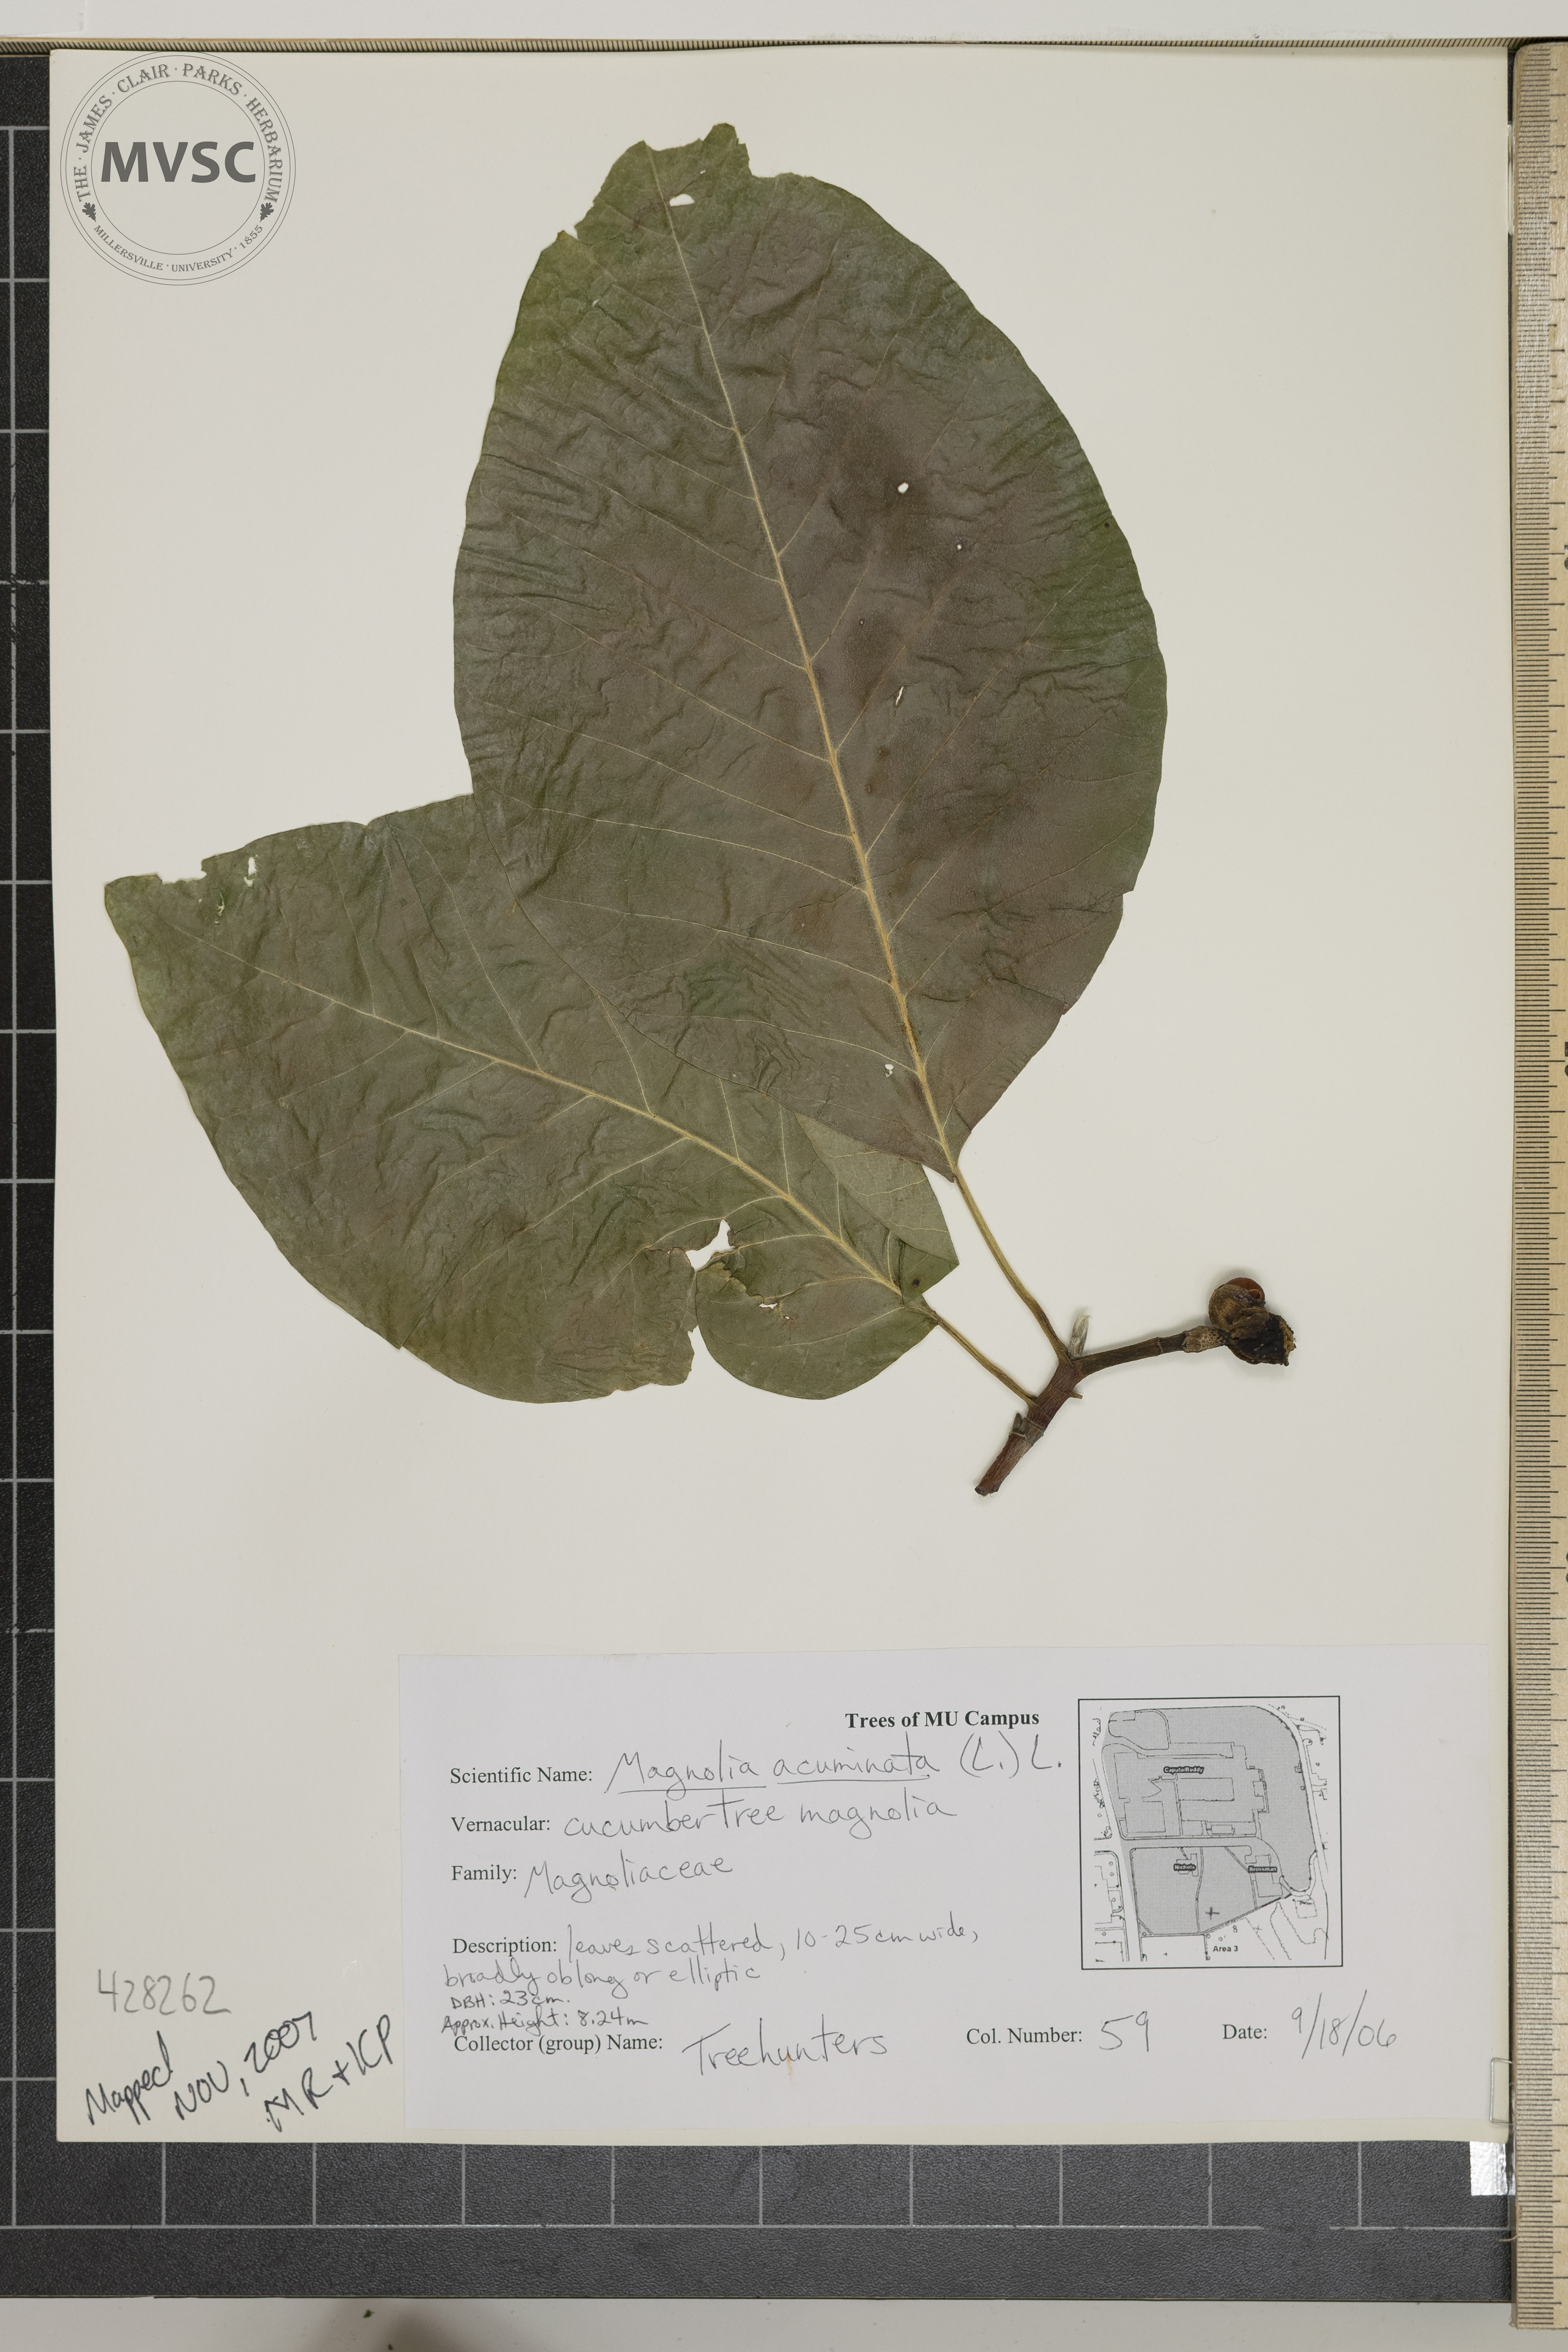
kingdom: Plantae
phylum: Tracheophyta
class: Magnoliopsida
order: Magnoliales
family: Magnoliaceae
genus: Magnolia
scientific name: Magnolia acuminata
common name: Cucumber Tree
